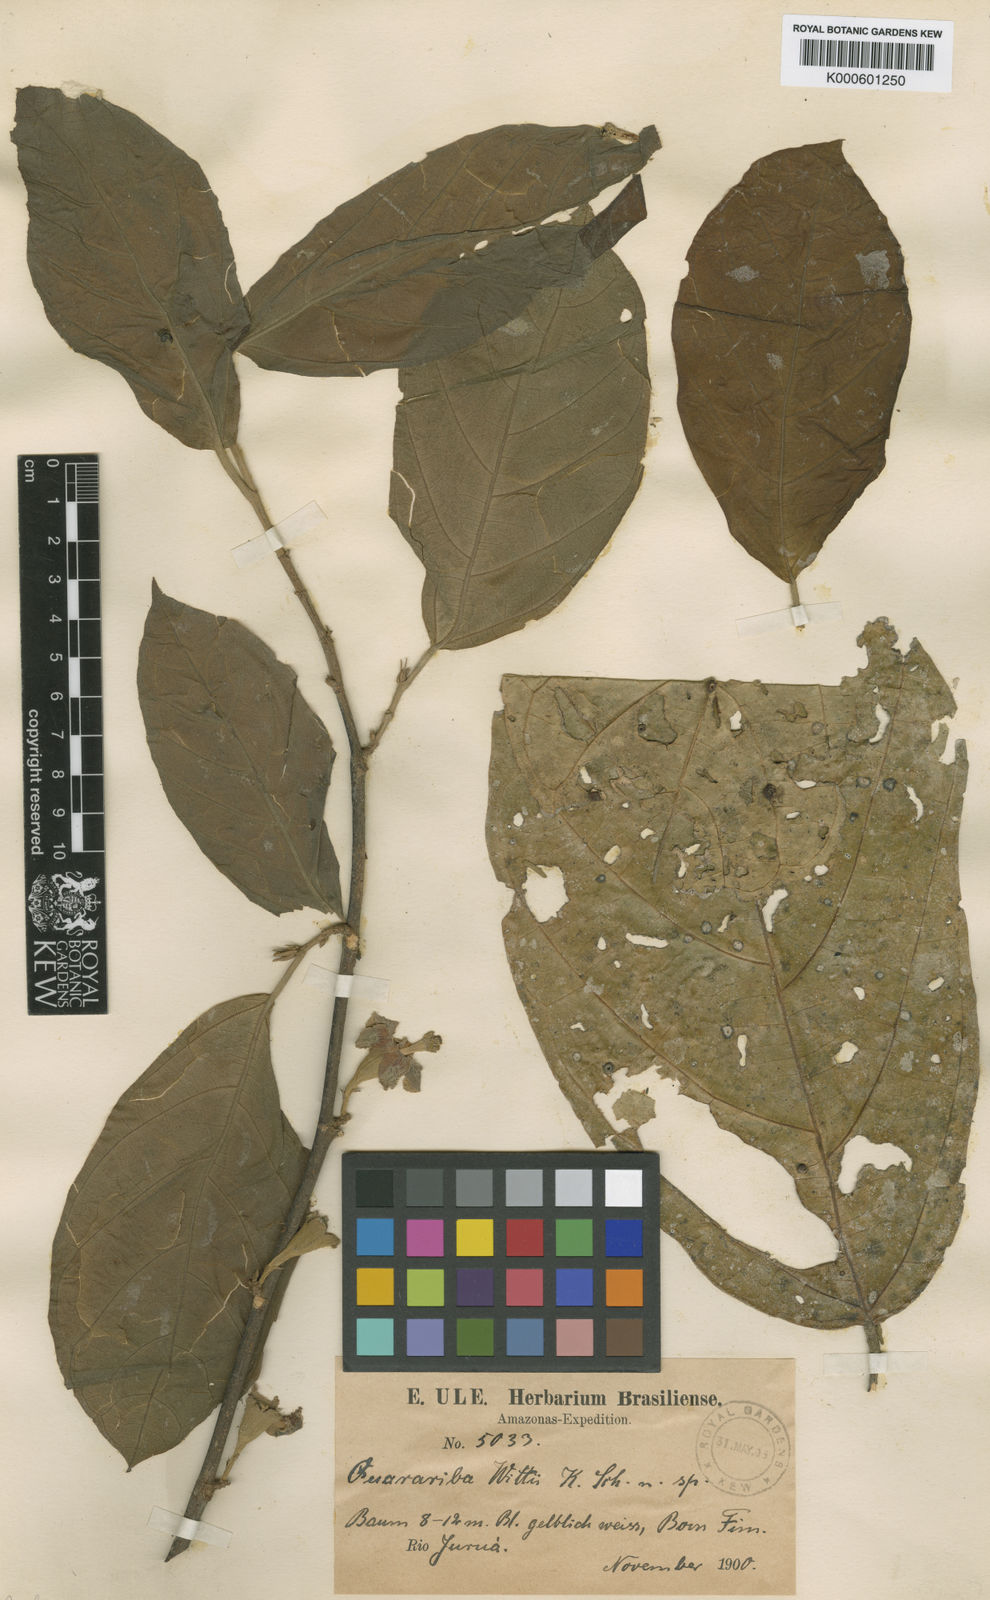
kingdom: Plantae
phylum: Tracheophyta
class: Magnoliopsida
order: Malvales
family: Malvaceae
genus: Quararibea
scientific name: Quararibea wittii
